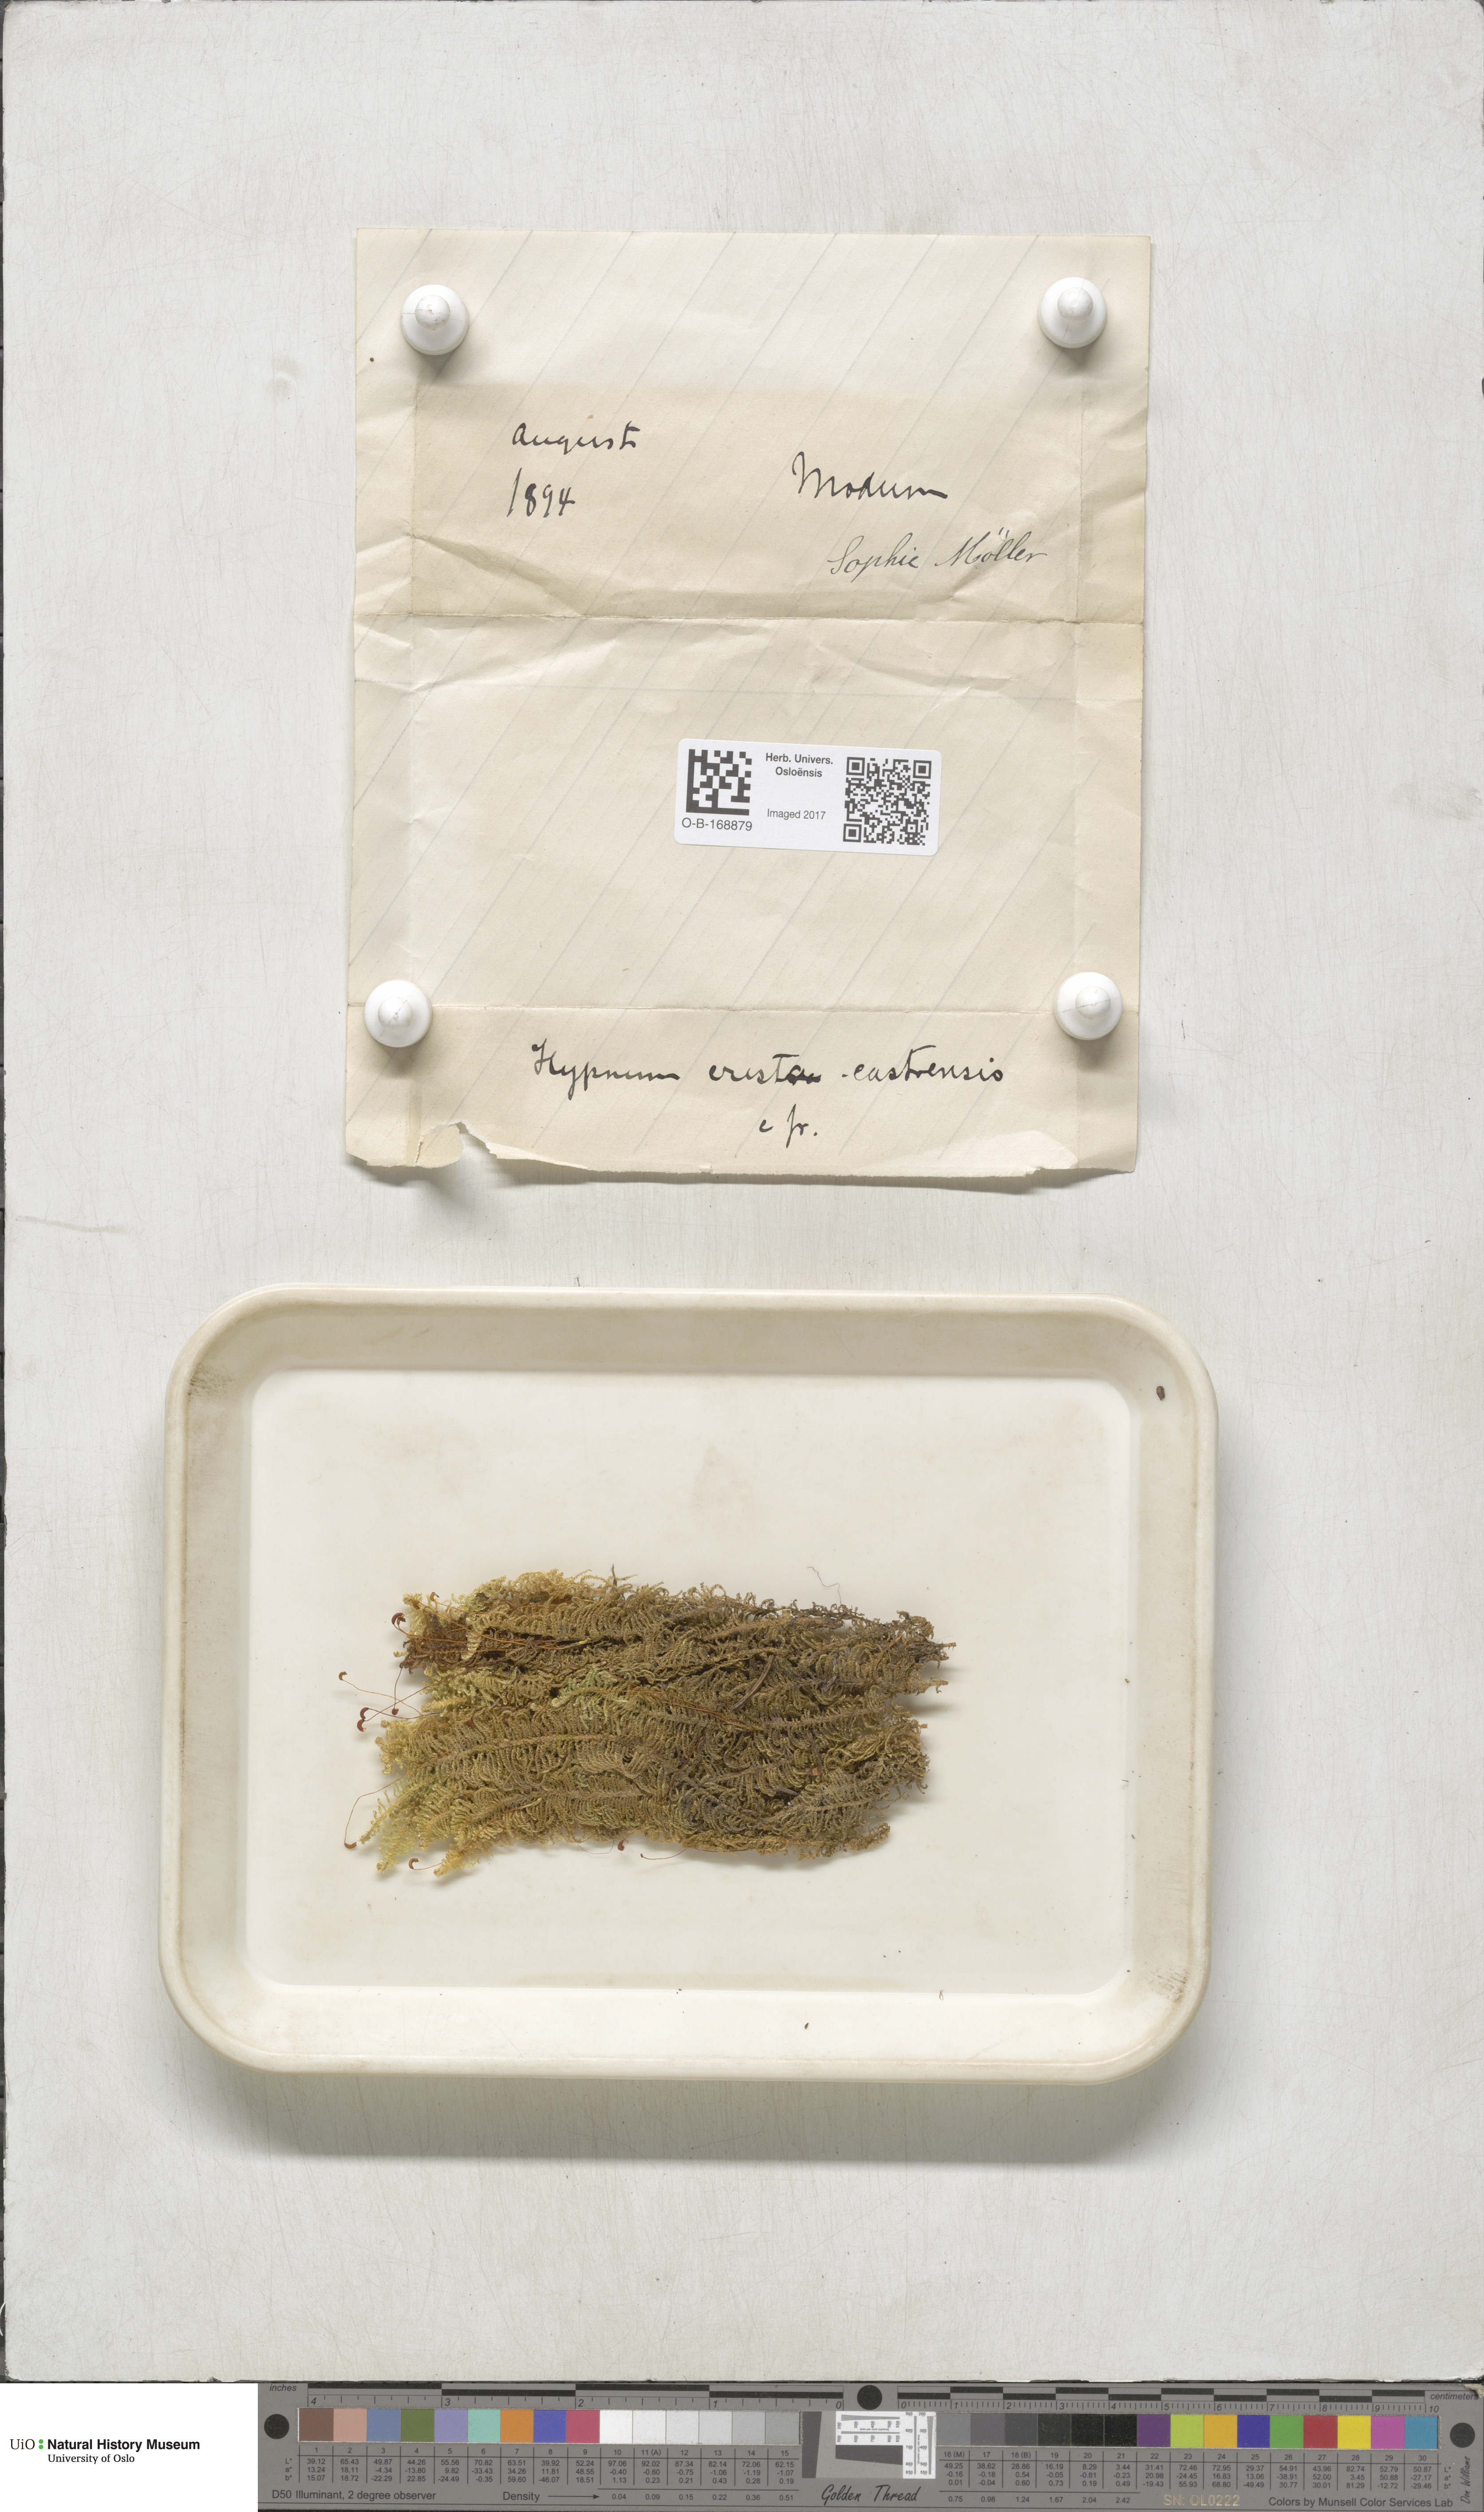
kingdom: Plantae
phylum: Bryophyta
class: Bryopsida
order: Hypnales
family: Pylaisiaceae
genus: Ptilium
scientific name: Ptilium crista-castrensis
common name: Knight's plume moss
